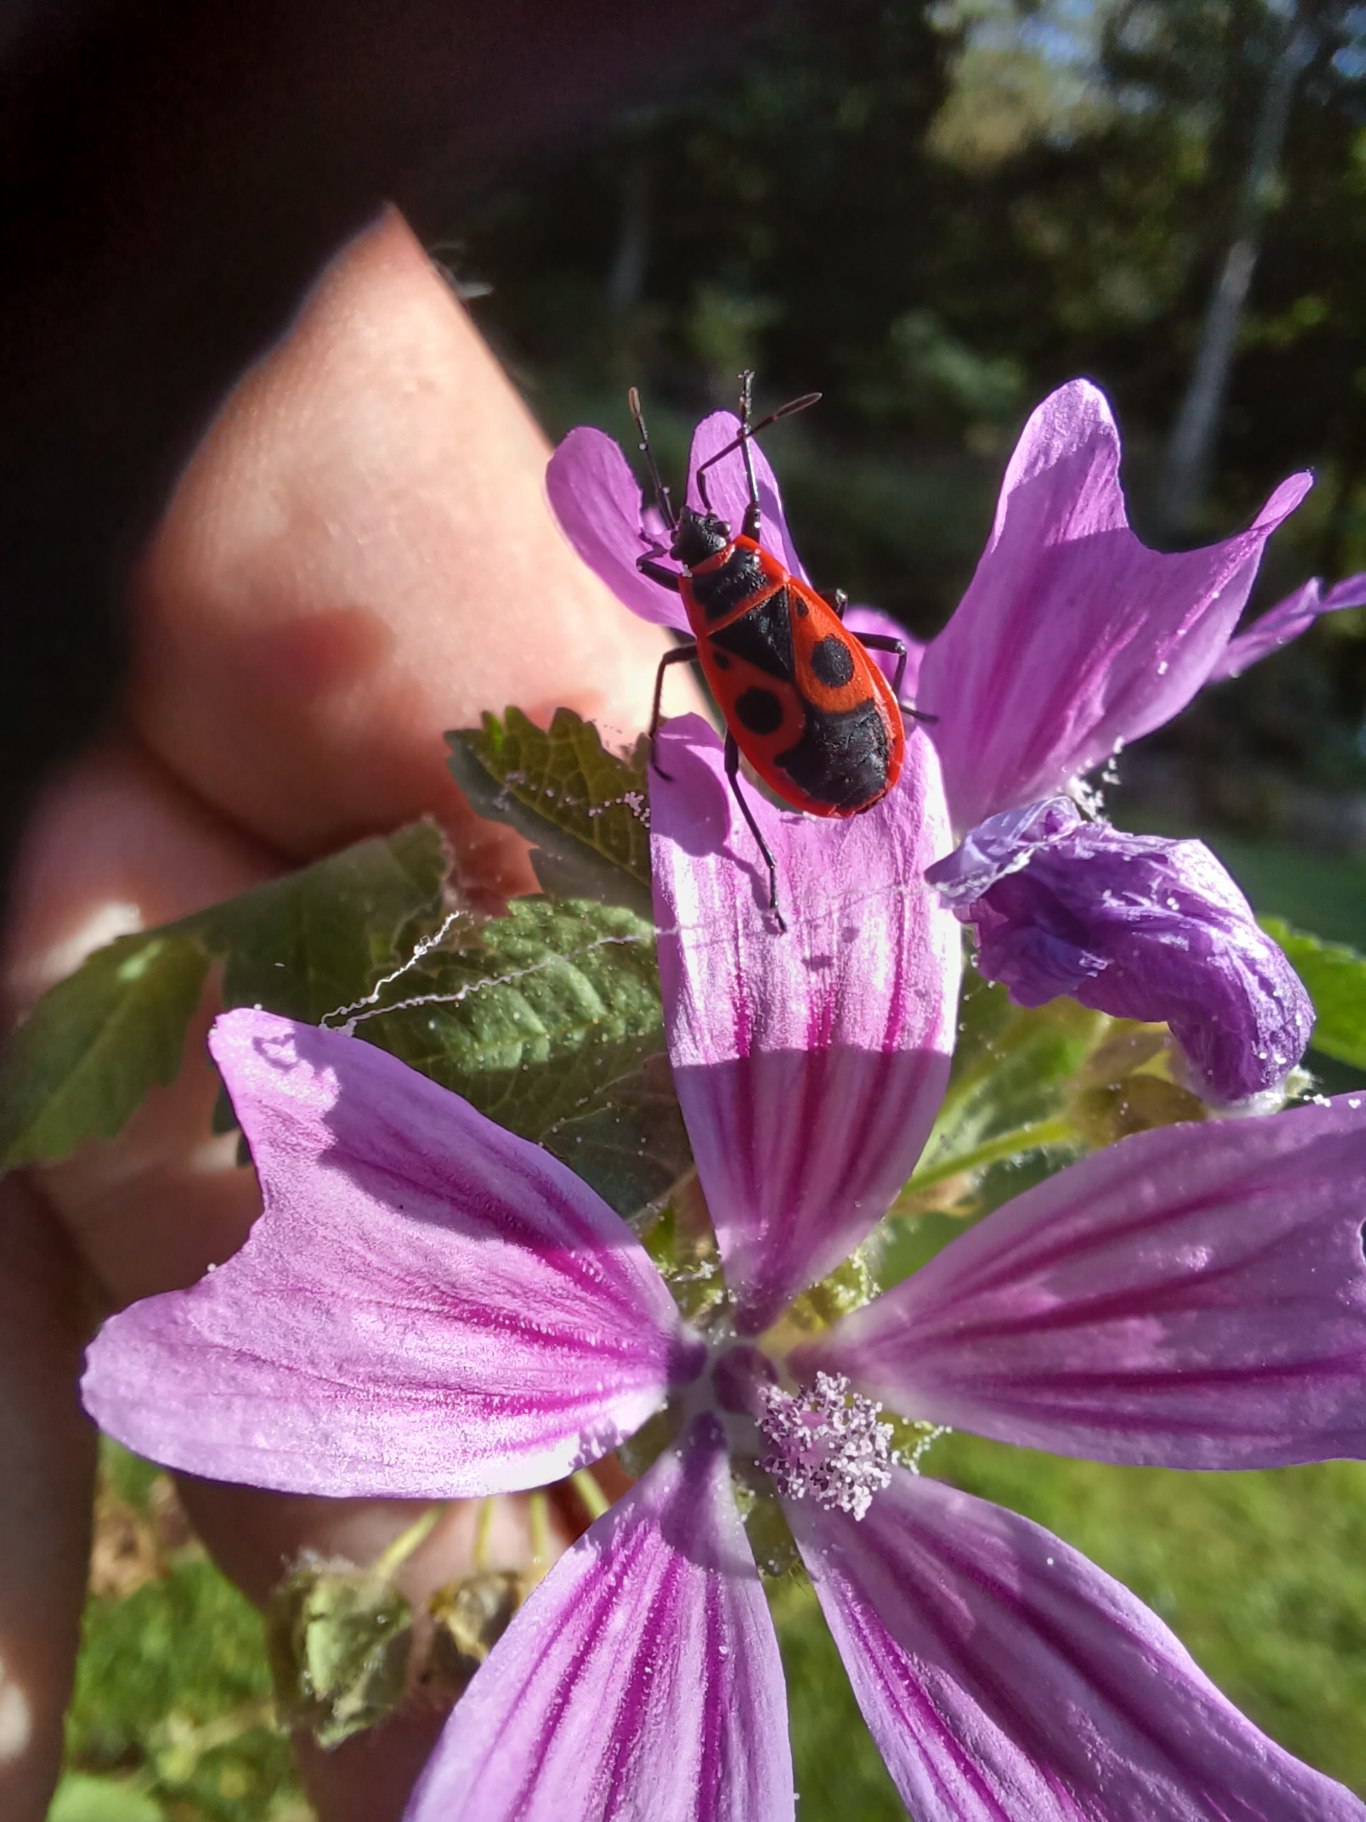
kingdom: Animalia
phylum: Arthropoda
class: Insecta
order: Hemiptera
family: Pyrrhocoridae
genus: Pyrrhocoris
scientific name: Pyrrhocoris apterus
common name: Ildtæge
